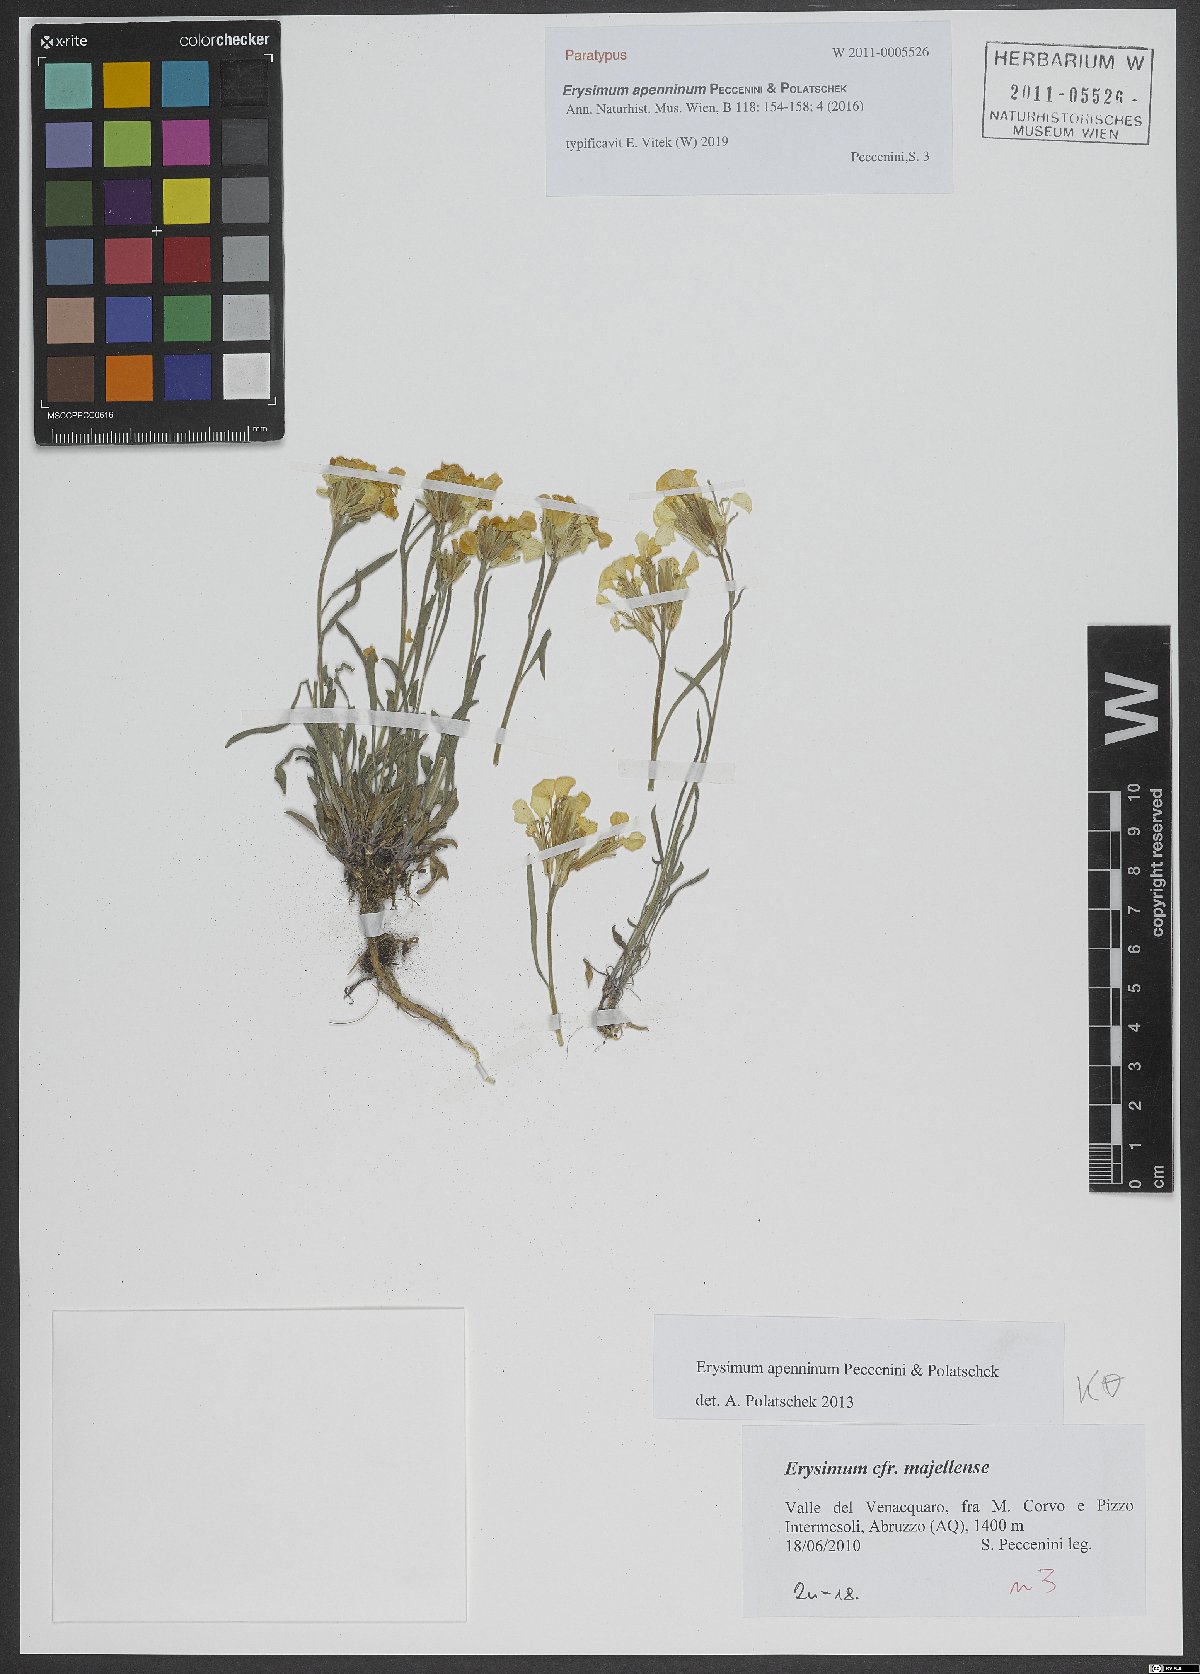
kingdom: Plantae
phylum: Tracheophyta
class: Magnoliopsida
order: Brassicales
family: Brassicaceae
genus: Erysimum
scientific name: Erysimum apenninum
